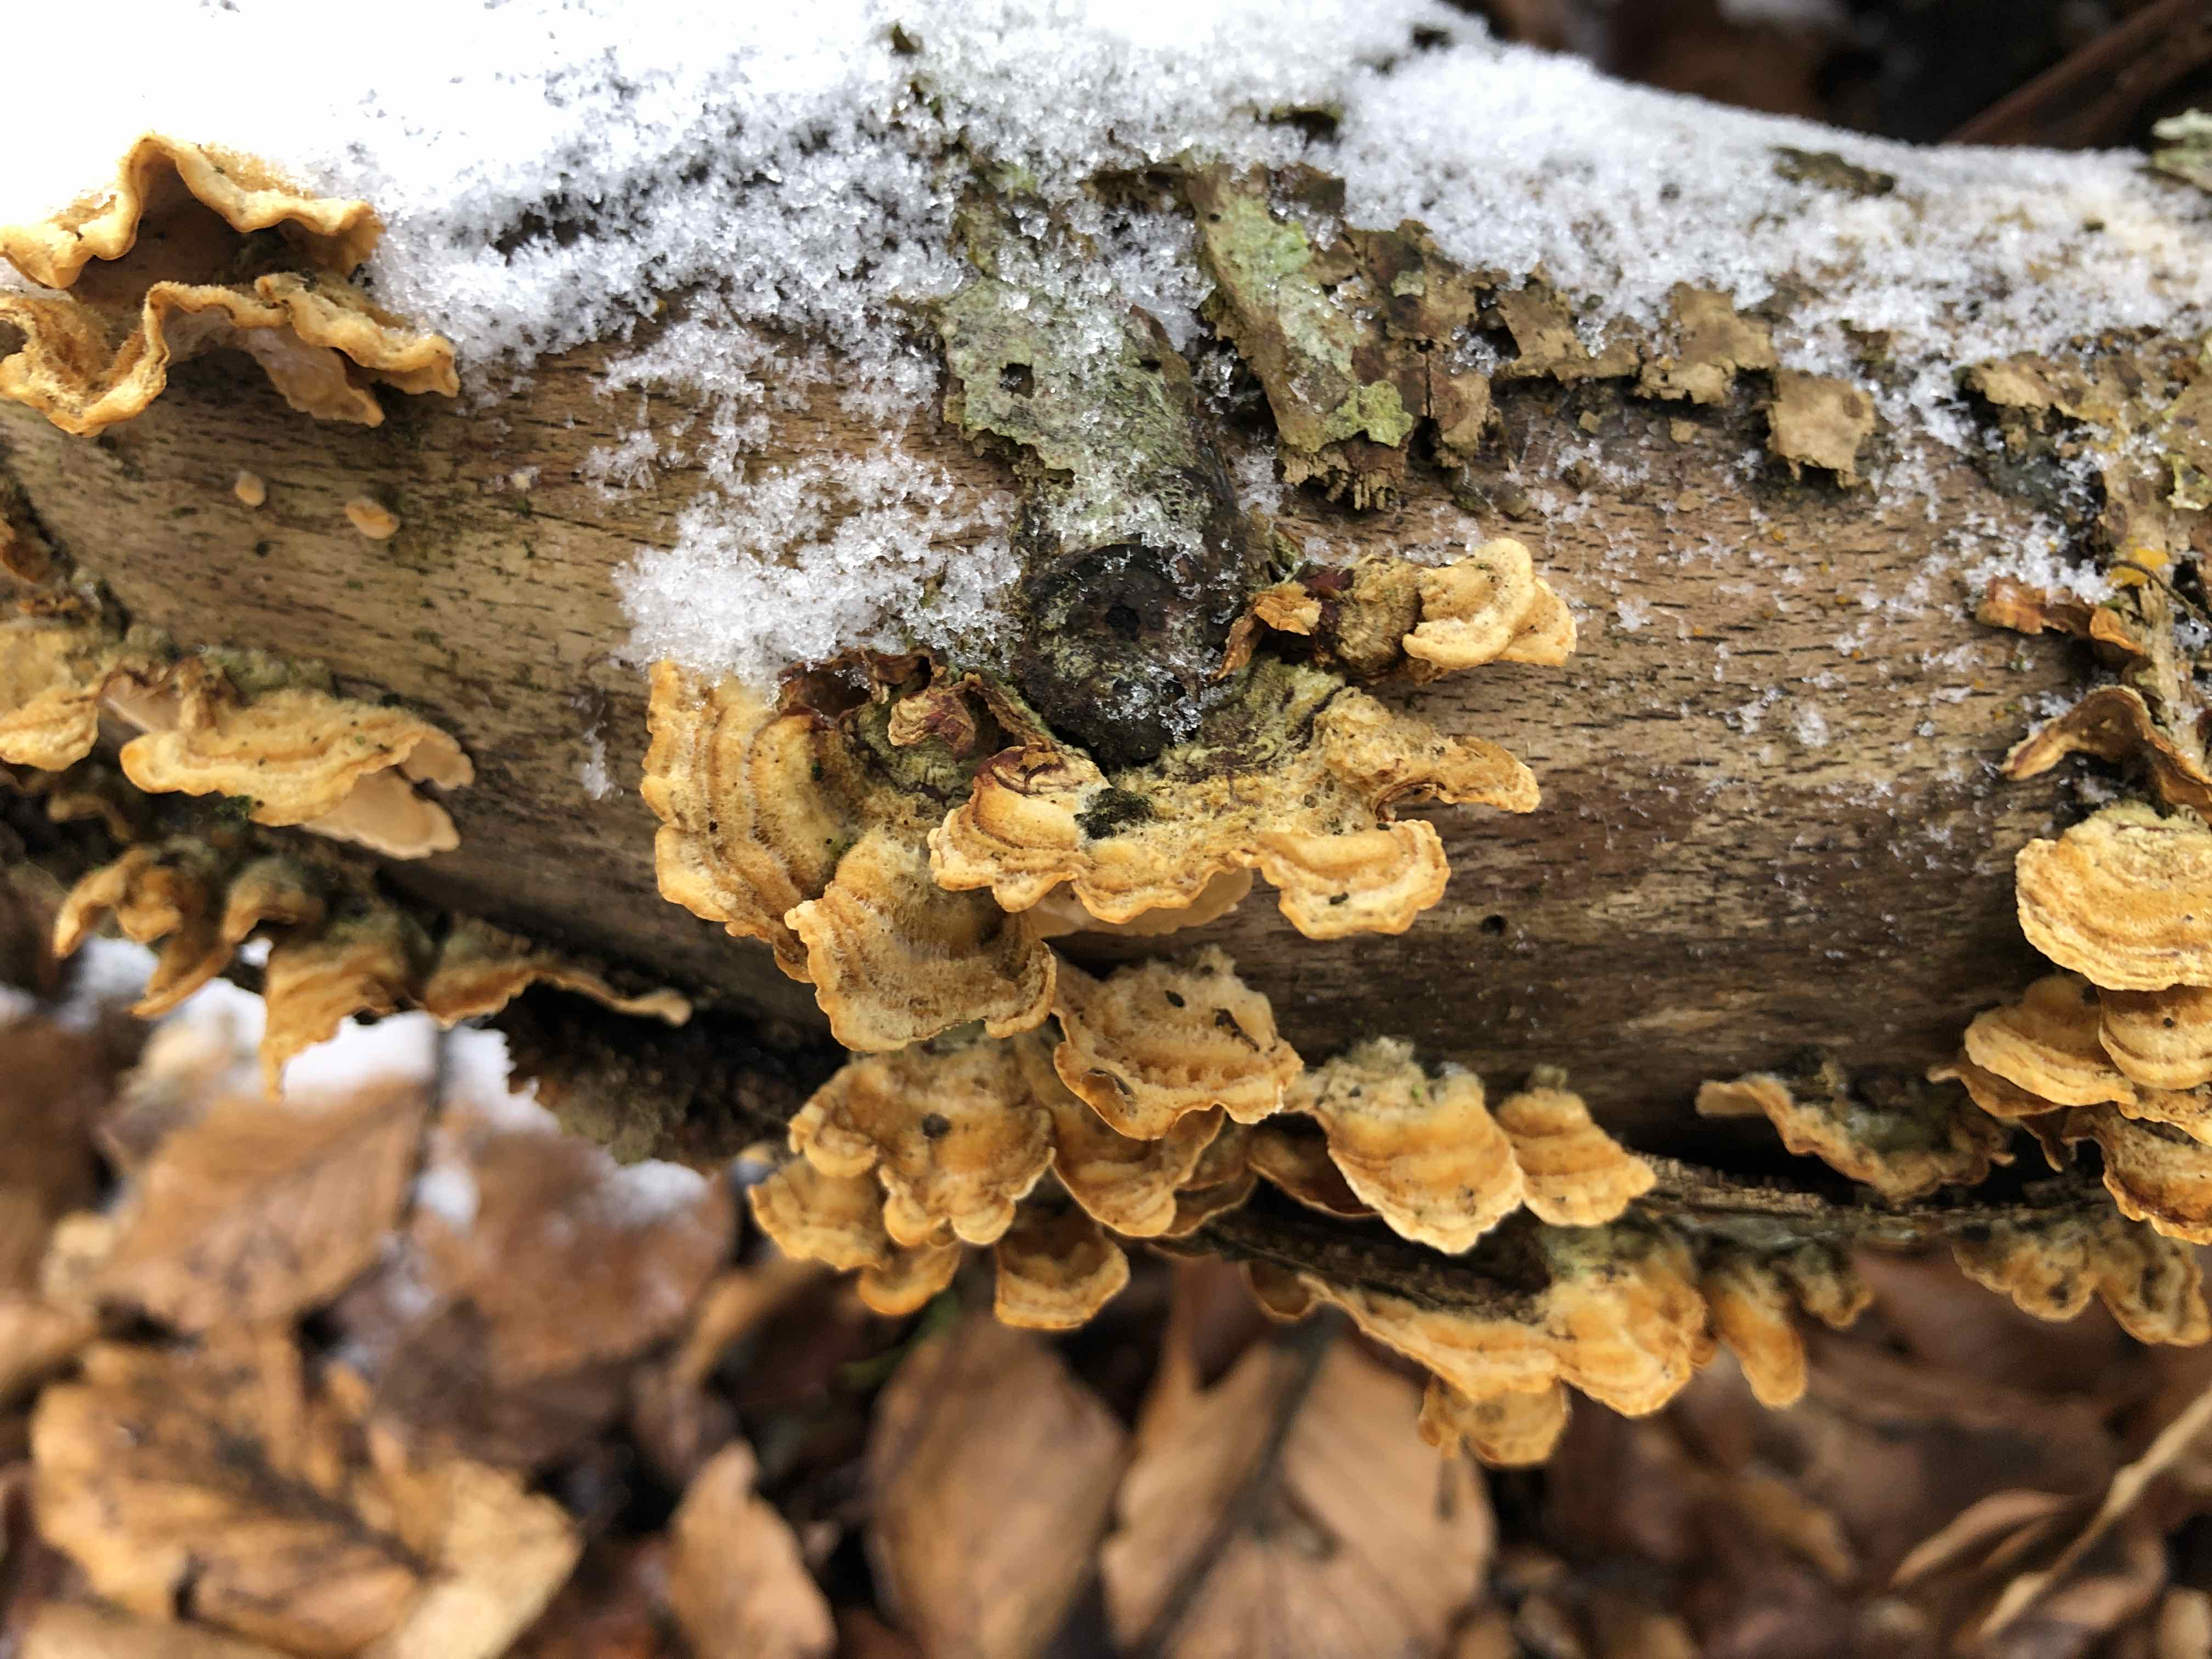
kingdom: Fungi
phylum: Basidiomycota
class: Agaricomycetes
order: Russulales
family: Stereaceae
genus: Stereum
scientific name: Stereum hirsutum
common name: håret lædersvamp
